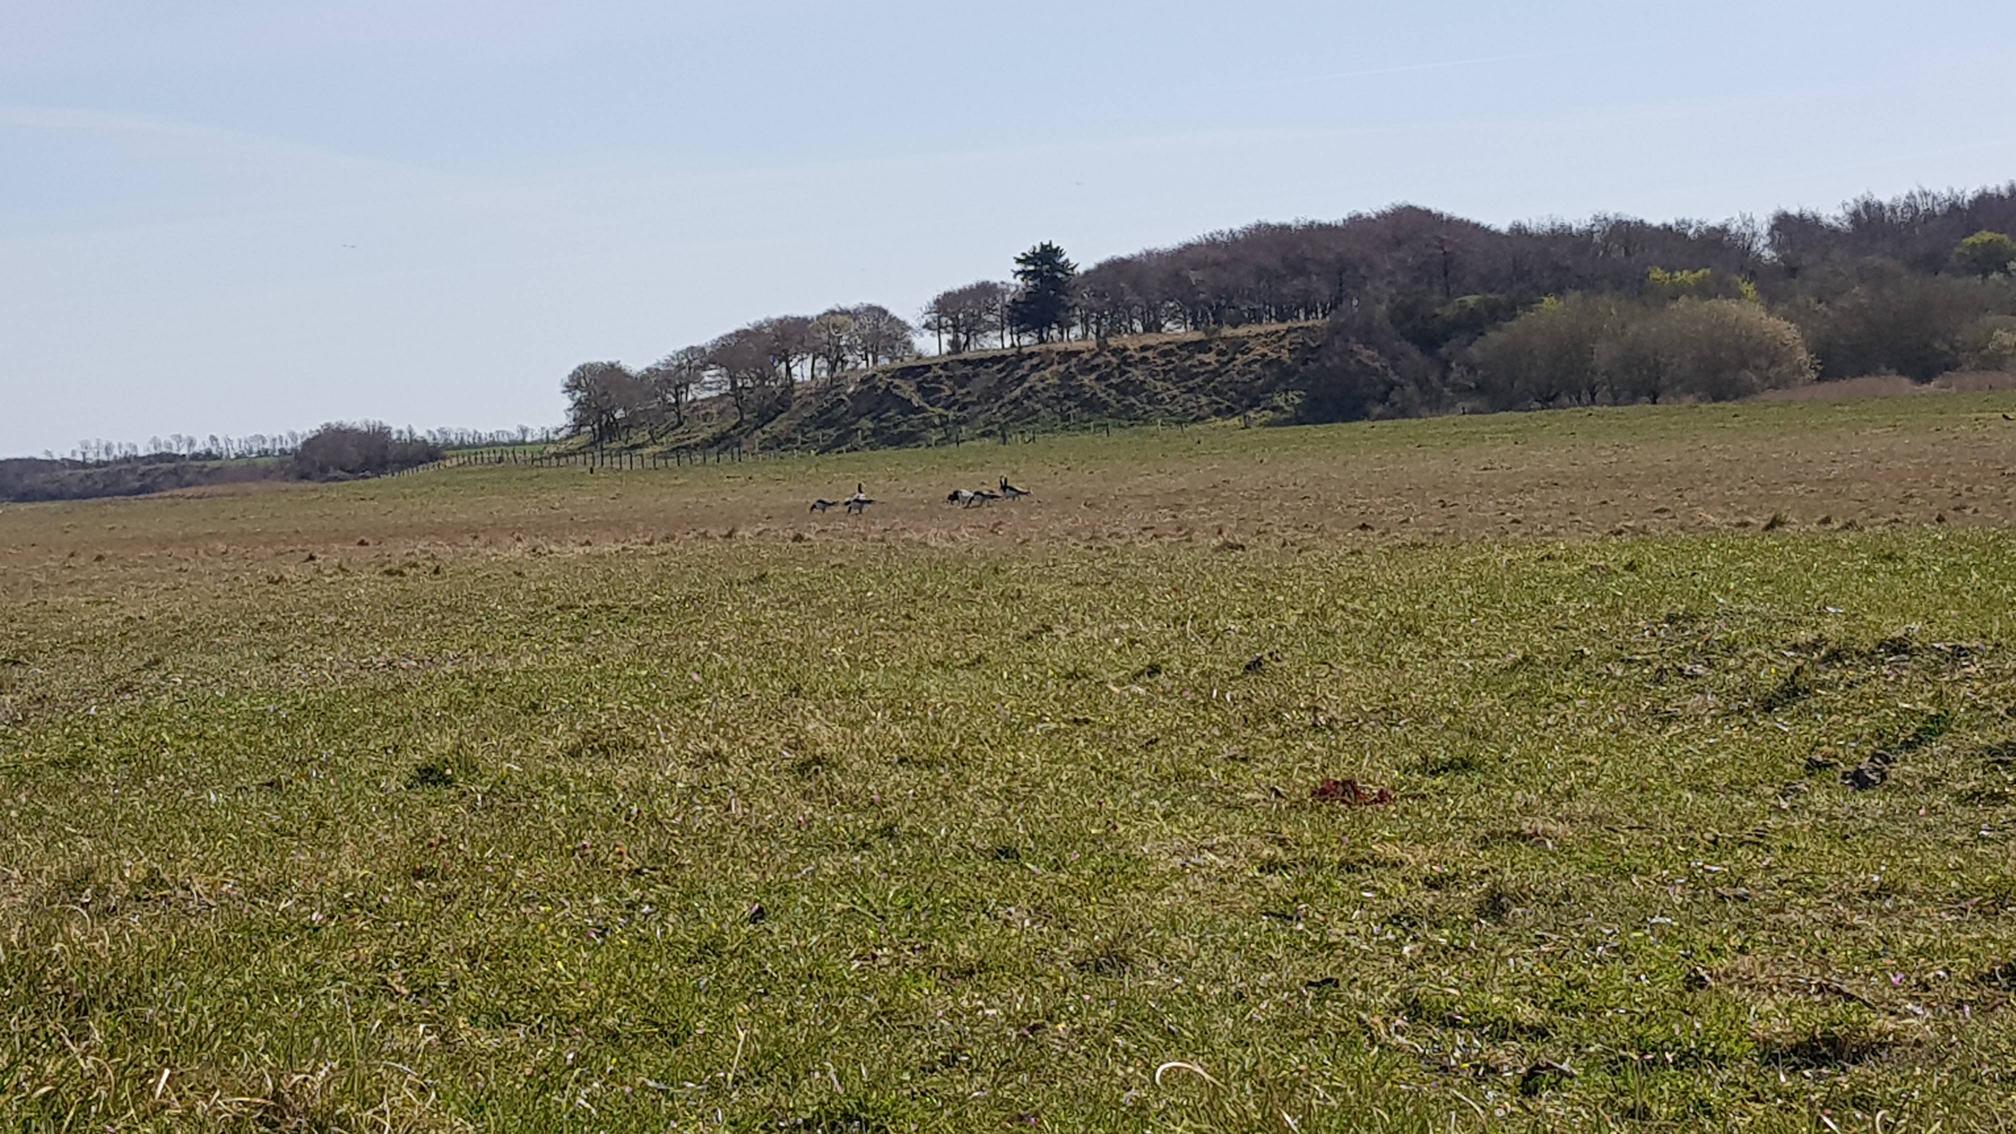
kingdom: Animalia
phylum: Chordata
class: Aves
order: Anseriformes
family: Anatidae
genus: Branta
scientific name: Branta leucopsis
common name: Bramgås
